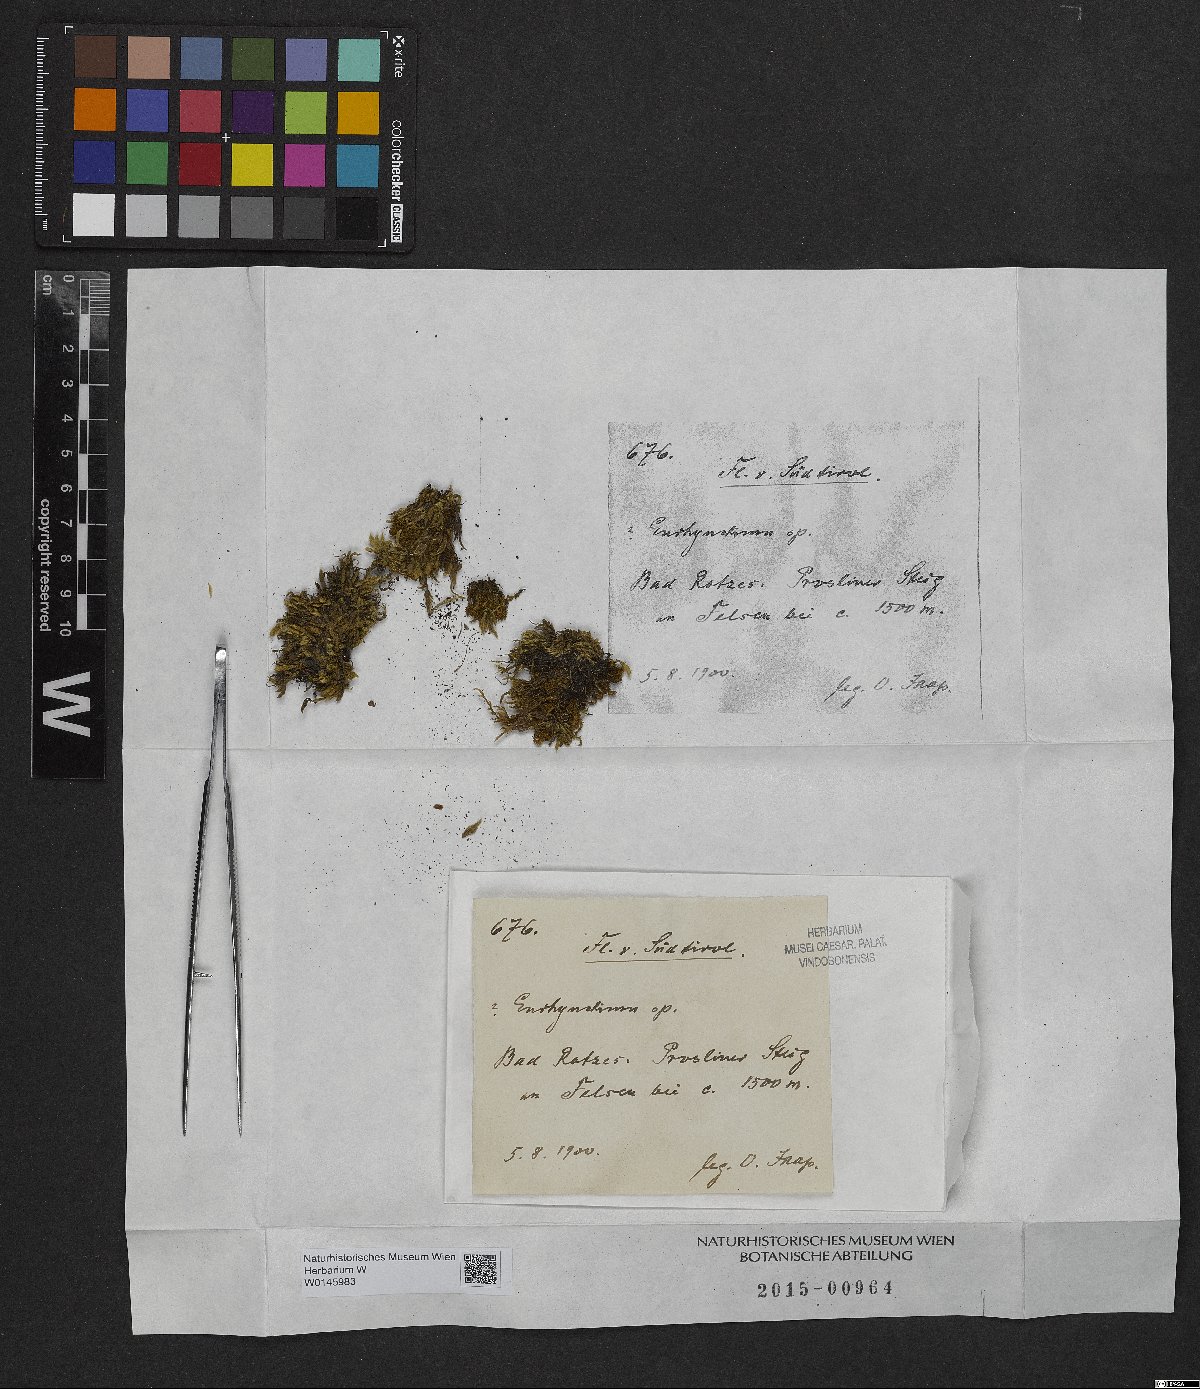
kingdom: Plantae
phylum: Bryophyta
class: Bryopsida
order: Hypnales
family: Brachytheciaceae
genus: Eurhynchium
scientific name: Eurhynchium
